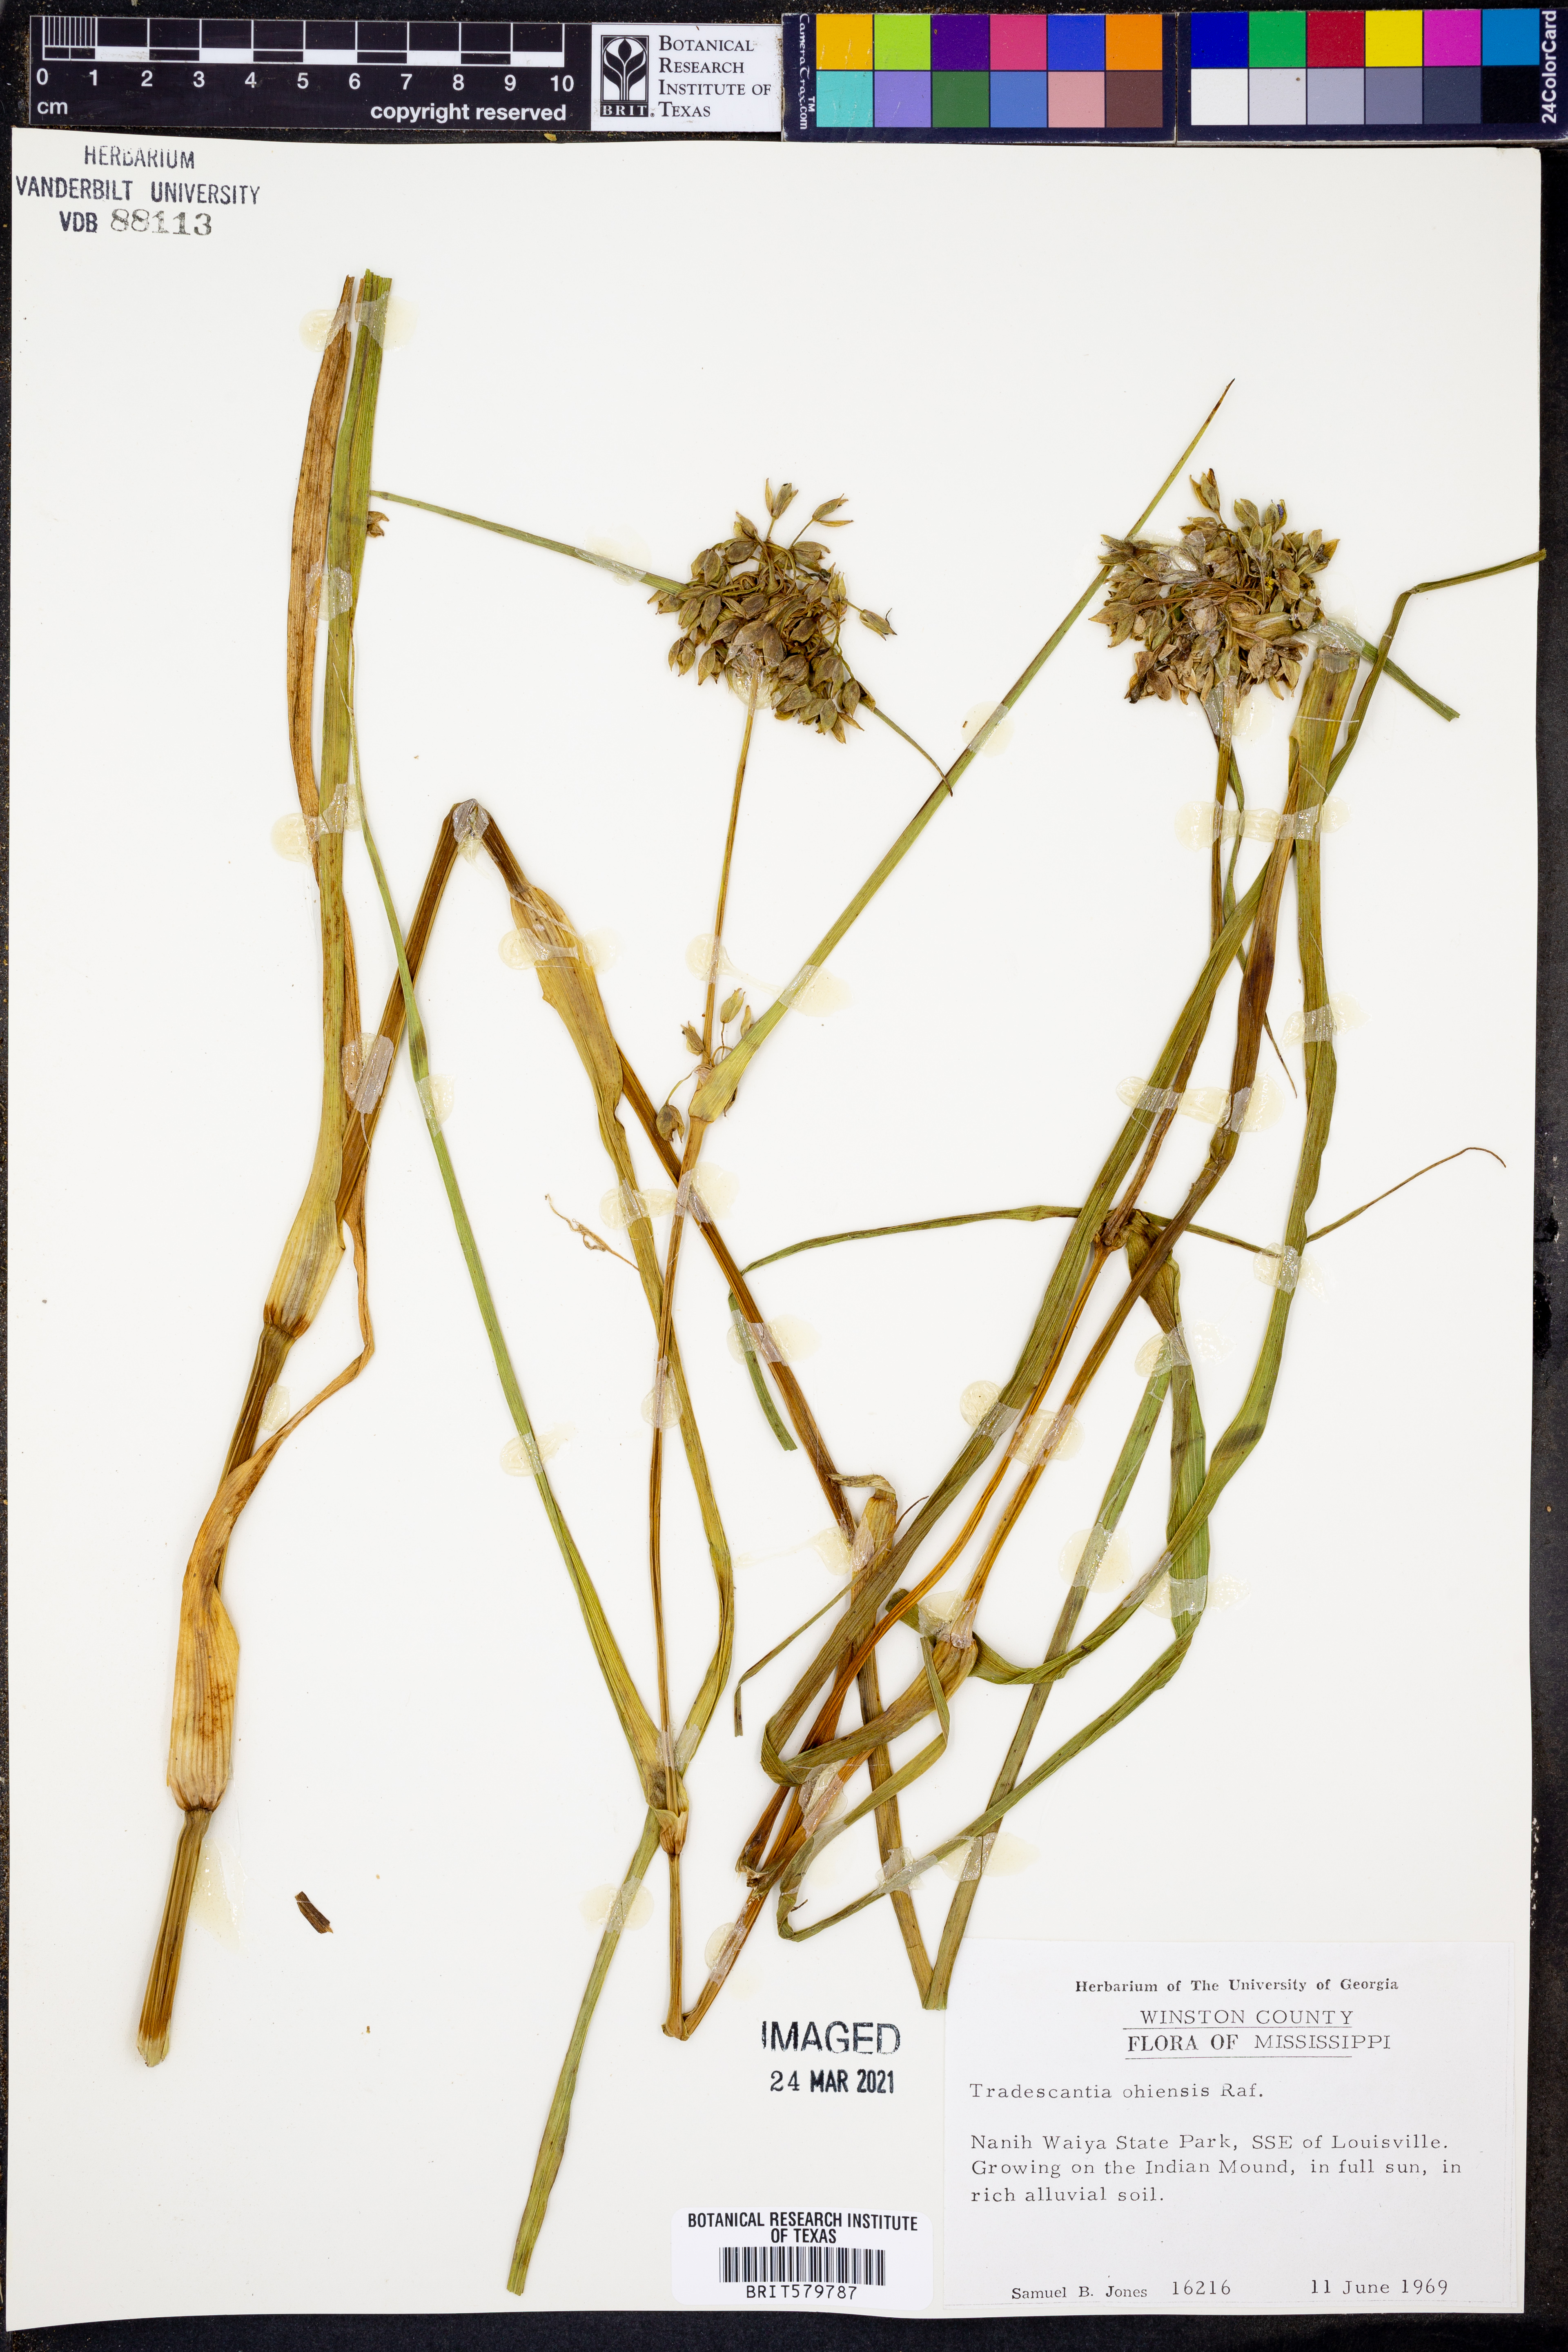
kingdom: Plantae
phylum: Tracheophyta
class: Liliopsida
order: Commelinales
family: Commelinaceae
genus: Tradescantia
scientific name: Tradescantia ohiensis
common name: Ohio spiderwort
